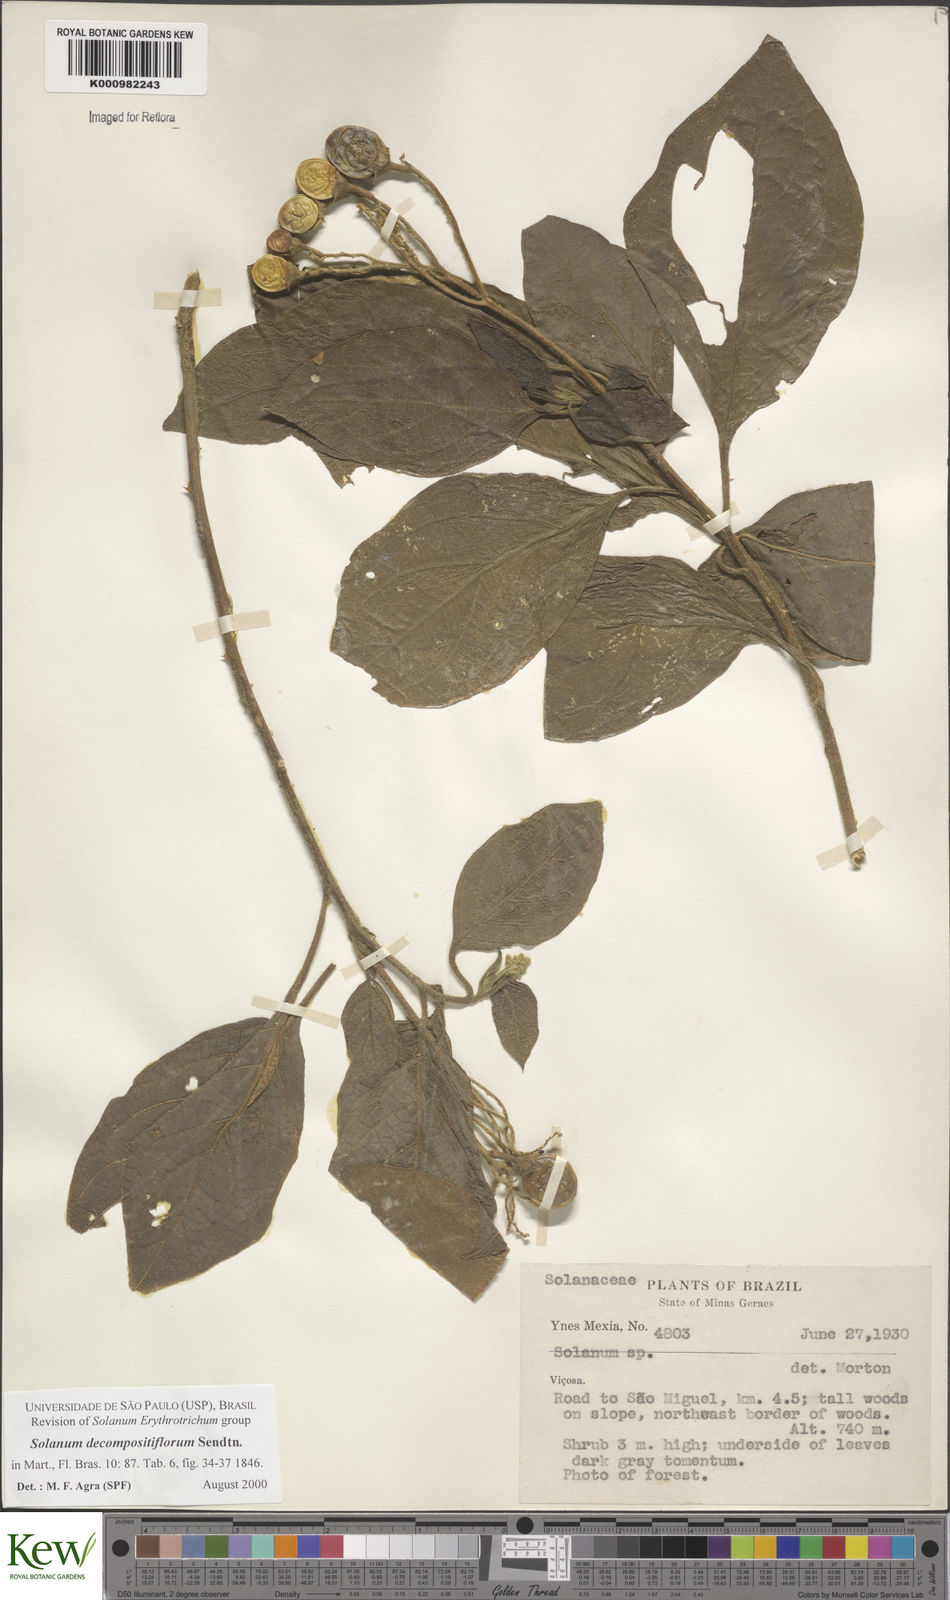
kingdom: Plantae
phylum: Tracheophyta
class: Magnoliopsida
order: Solanales
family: Solanaceae
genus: Solanum
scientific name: Solanum decompositiflorum
